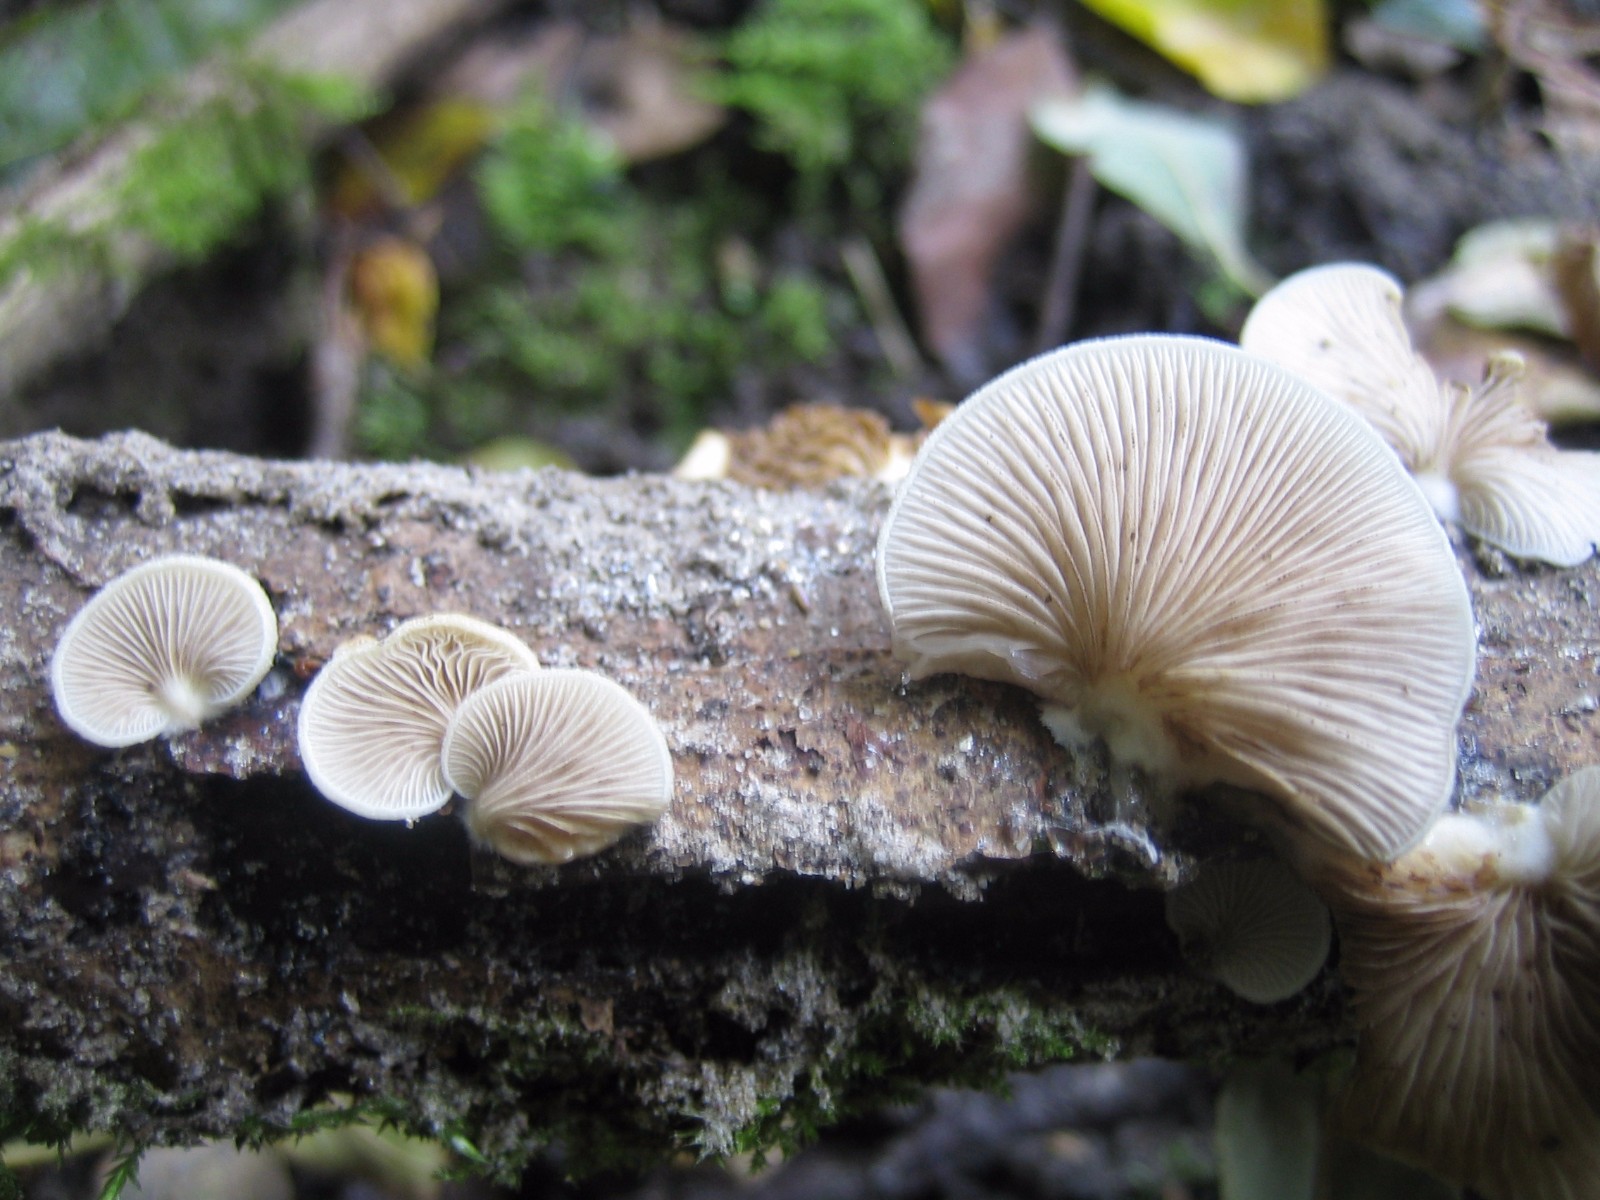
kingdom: Fungi
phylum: Basidiomycota
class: Agaricomycetes
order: Agaricales
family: Crepidotaceae
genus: Crepidotus
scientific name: Crepidotus mollis
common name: blød muslingesvamp
